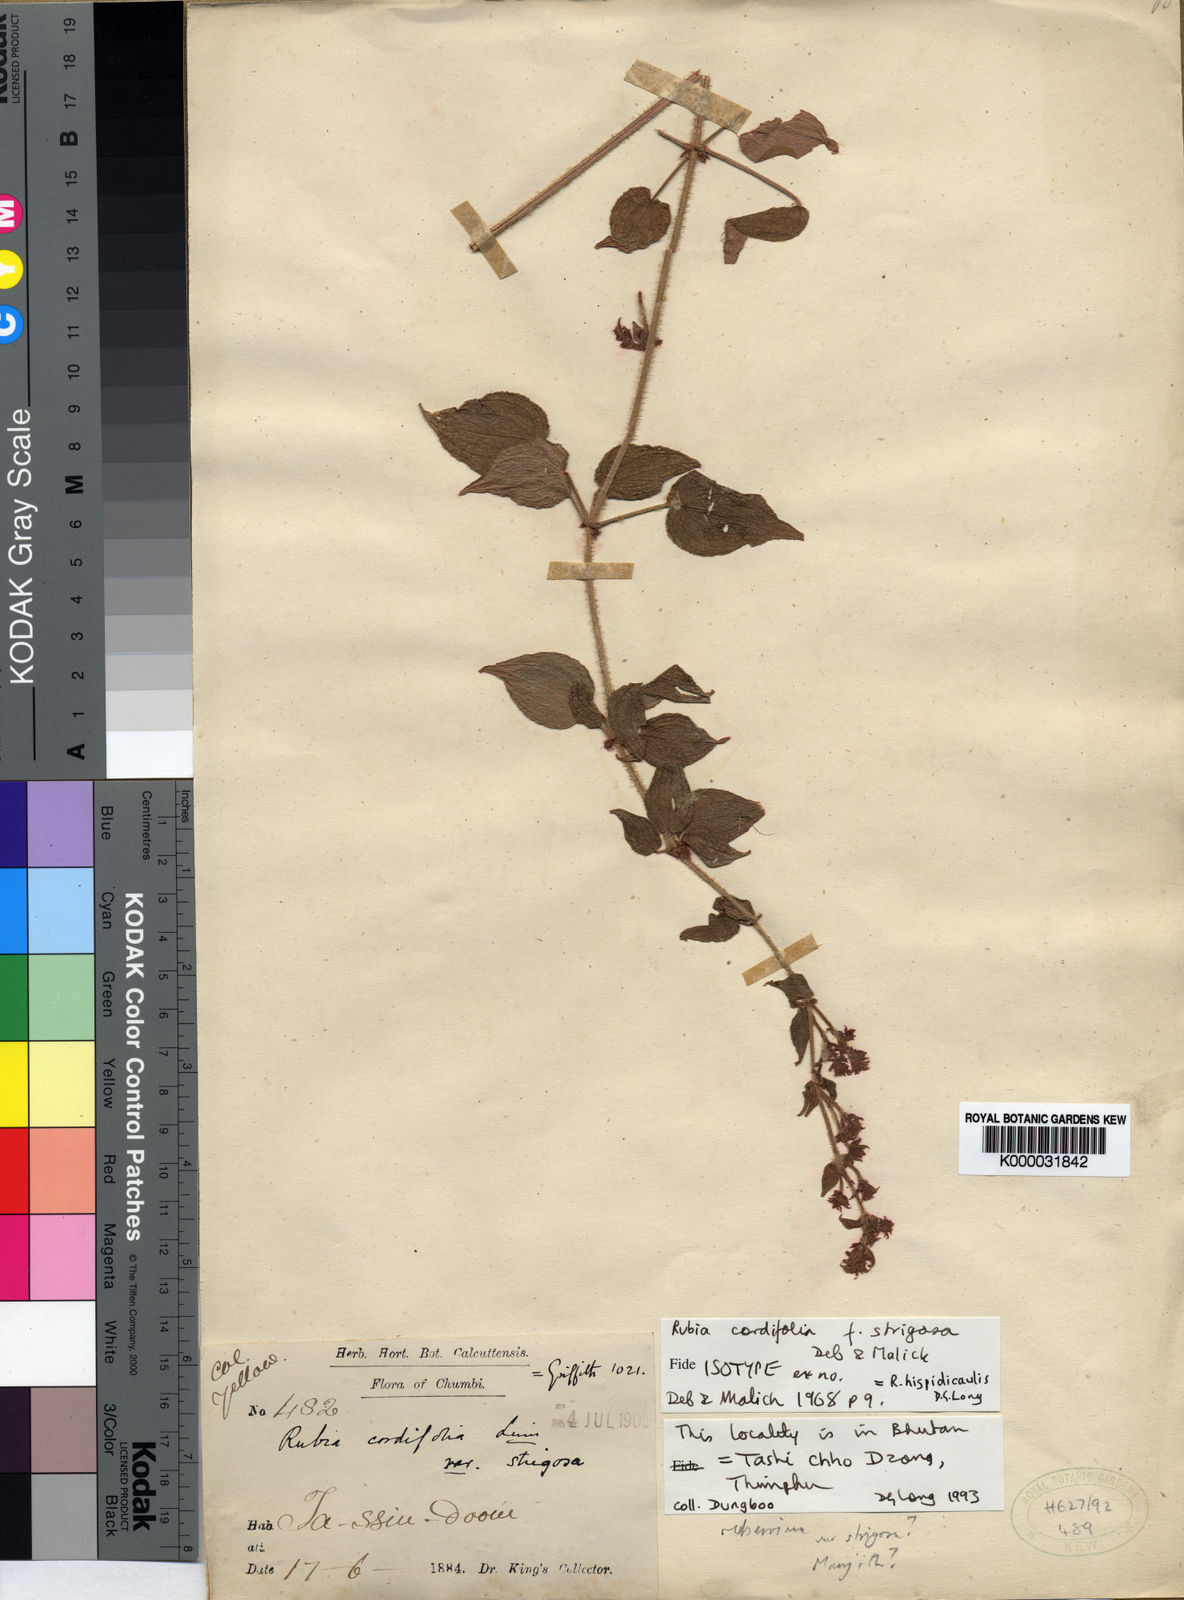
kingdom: Plantae
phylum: Tracheophyta
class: Magnoliopsida
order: Gentianales
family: Rubiaceae
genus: Rubia
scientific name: Rubia hispidicaulis
